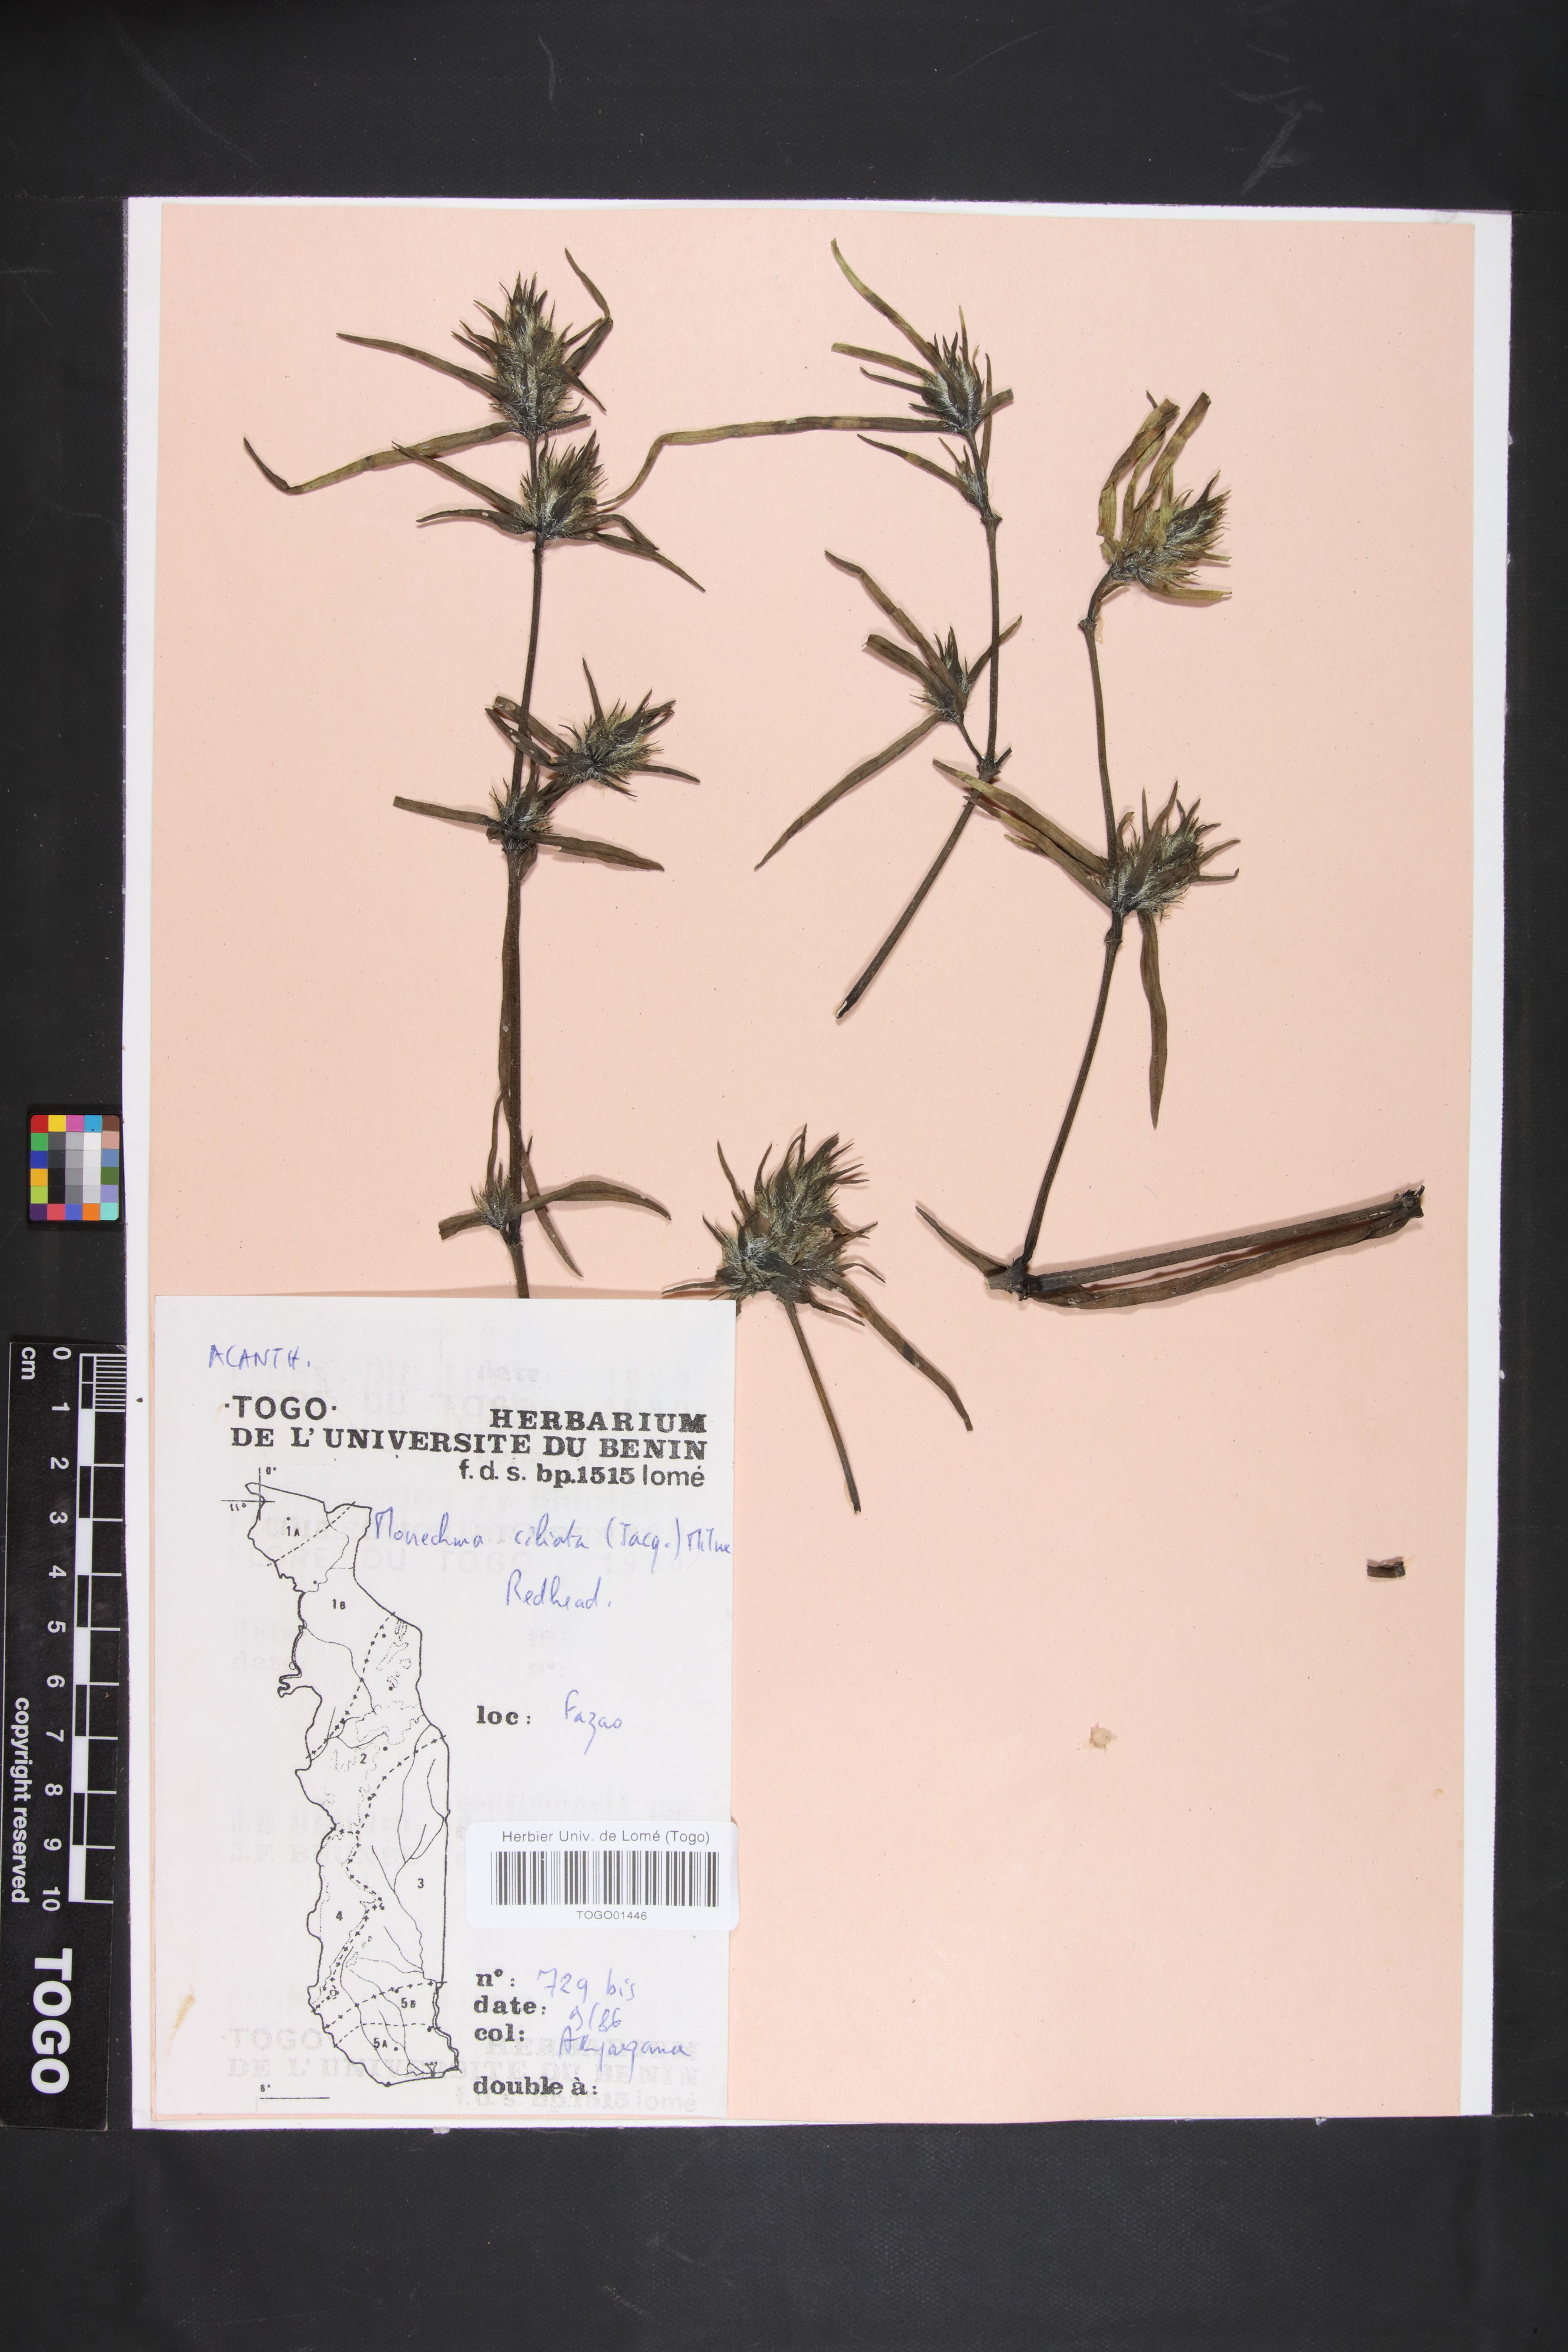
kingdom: Plantae
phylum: Tracheophyta
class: Magnoliopsida
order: Lamiales
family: Acanthaceae
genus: Pogonospermum
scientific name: Pogonospermum ciliare
